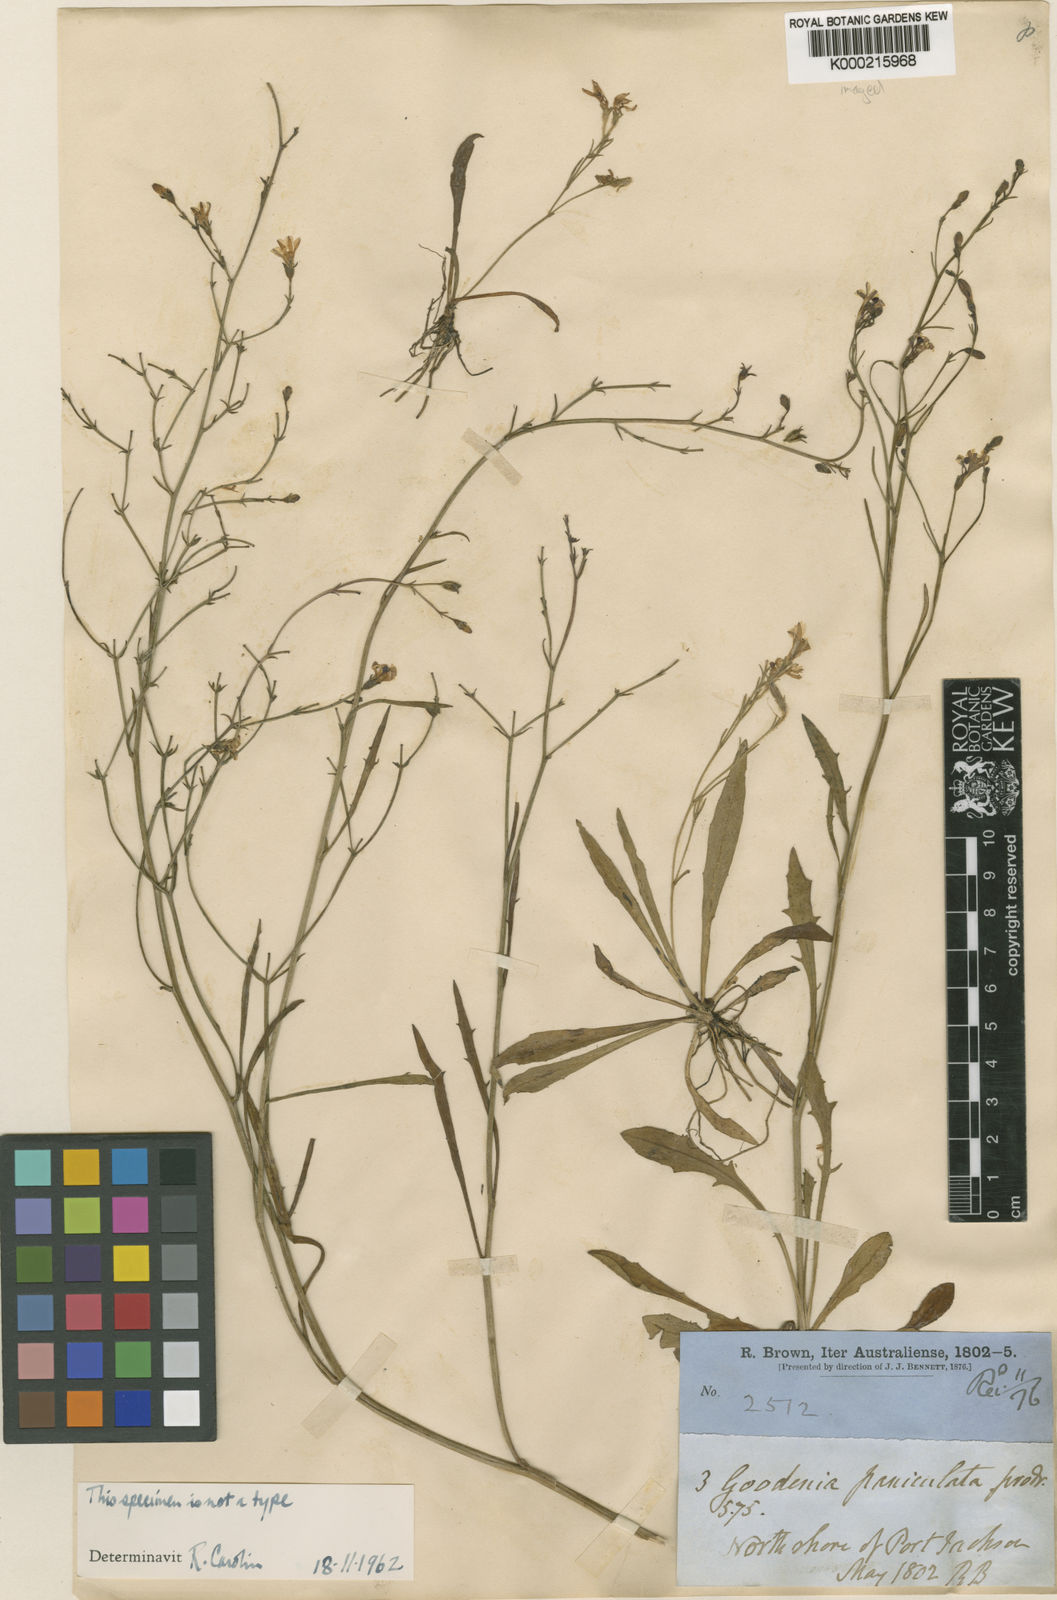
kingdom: Plantae
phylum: Tracheophyta
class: Magnoliopsida
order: Asterales
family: Goodeniaceae
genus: Goodenia
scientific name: Goodenia paniculata
